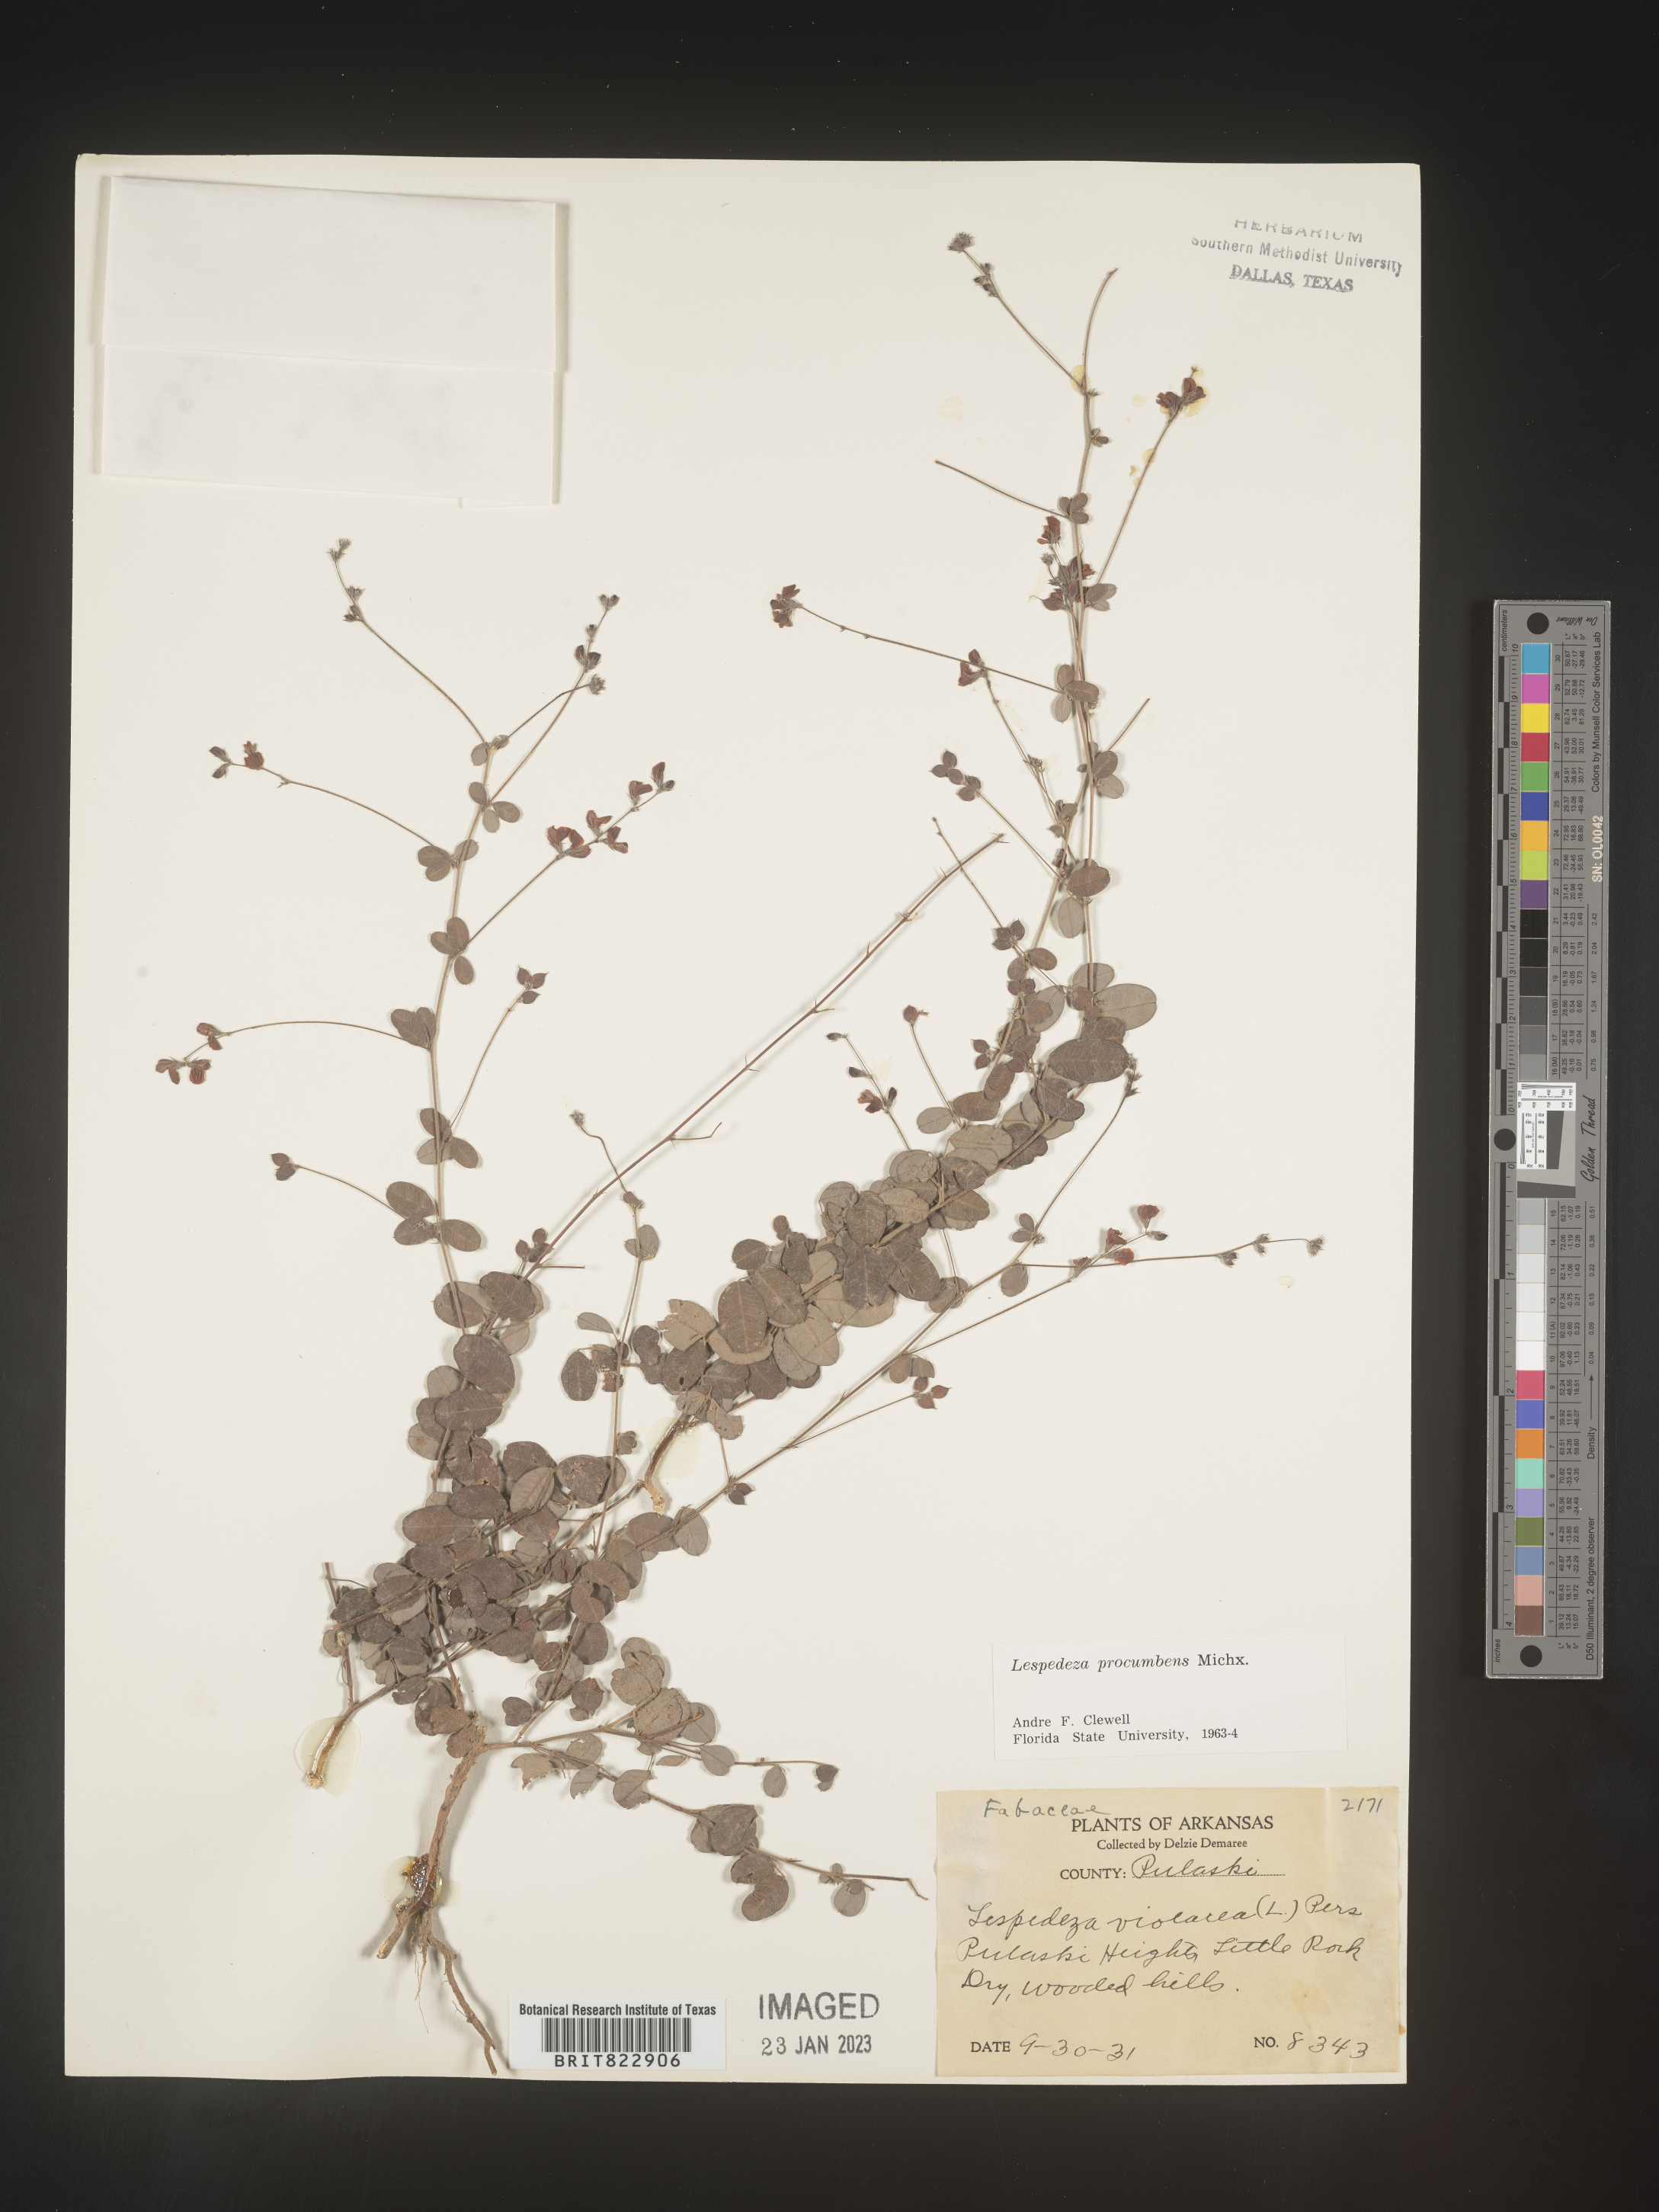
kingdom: Plantae
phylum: Tracheophyta
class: Magnoliopsida
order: Fabales
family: Fabaceae
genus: Lespedeza
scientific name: Lespedeza procumbens
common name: Downy trailing bush-clover
